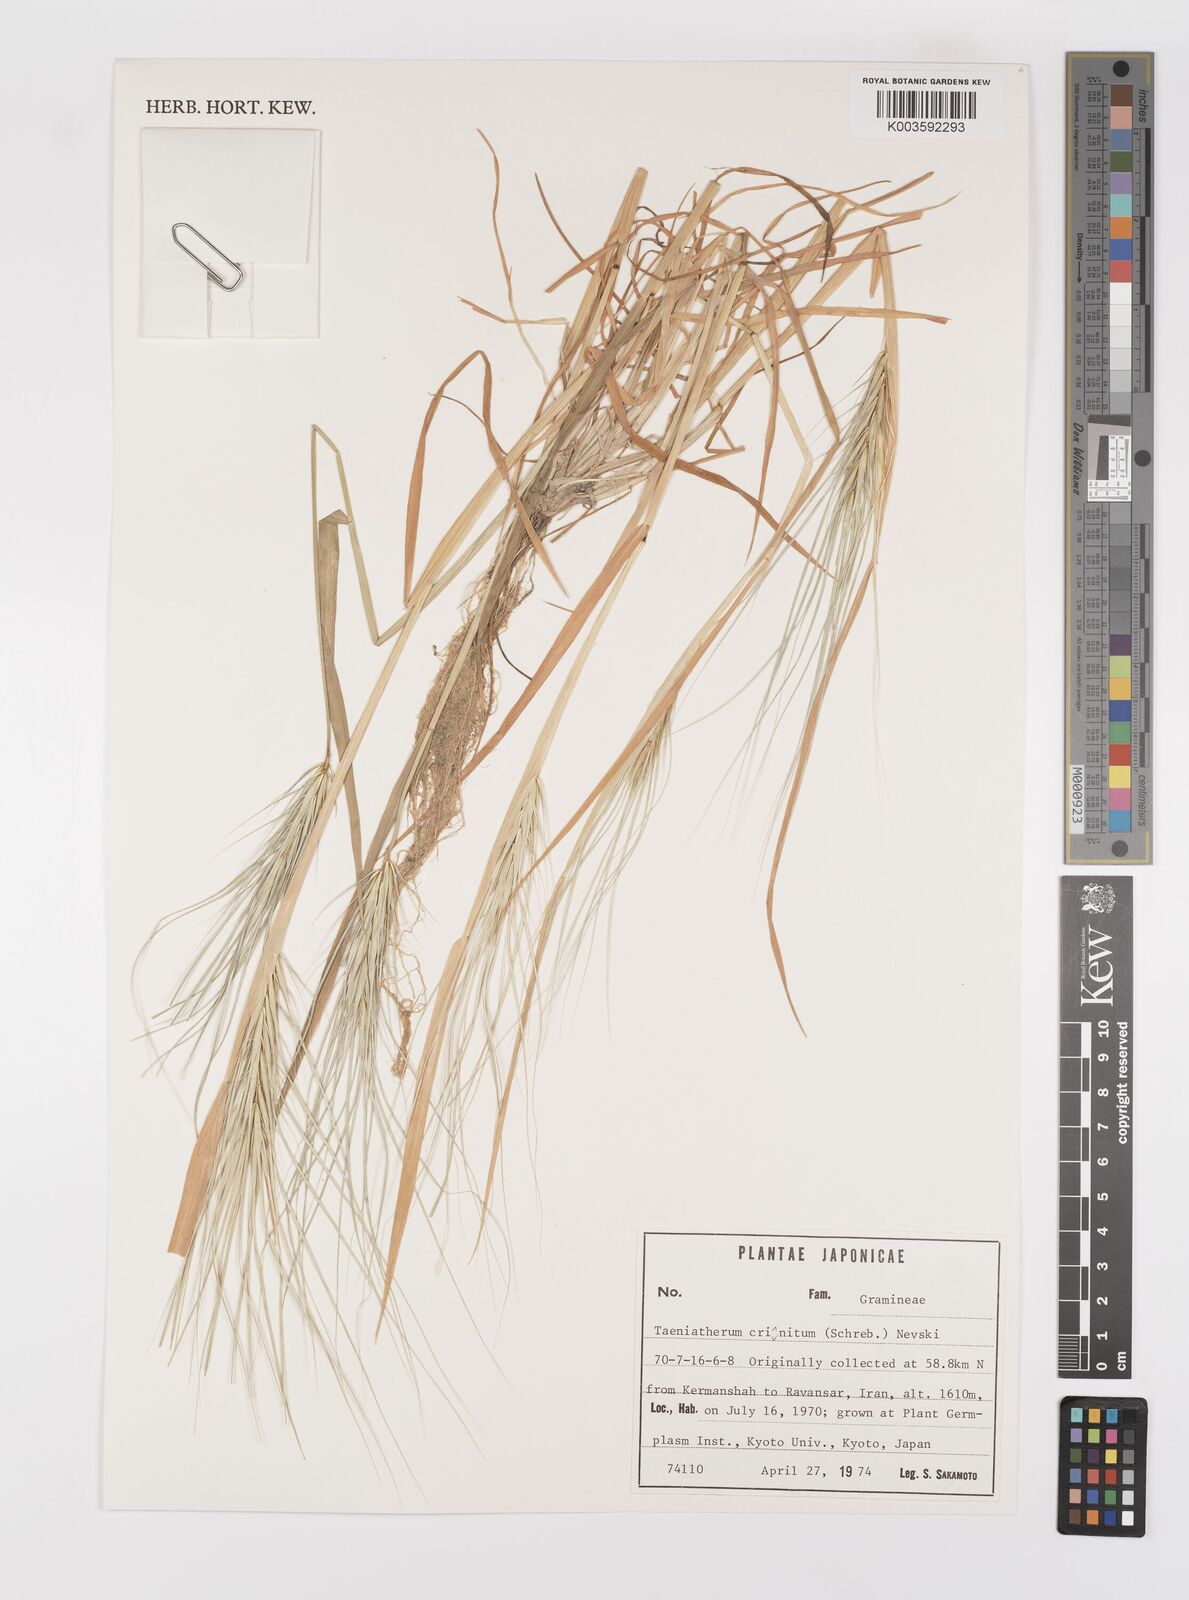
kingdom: Plantae
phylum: Tracheophyta
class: Liliopsida
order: Poales
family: Poaceae
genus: Taeniatherum
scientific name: Taeniatherum caput-medusae
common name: Medusahead
